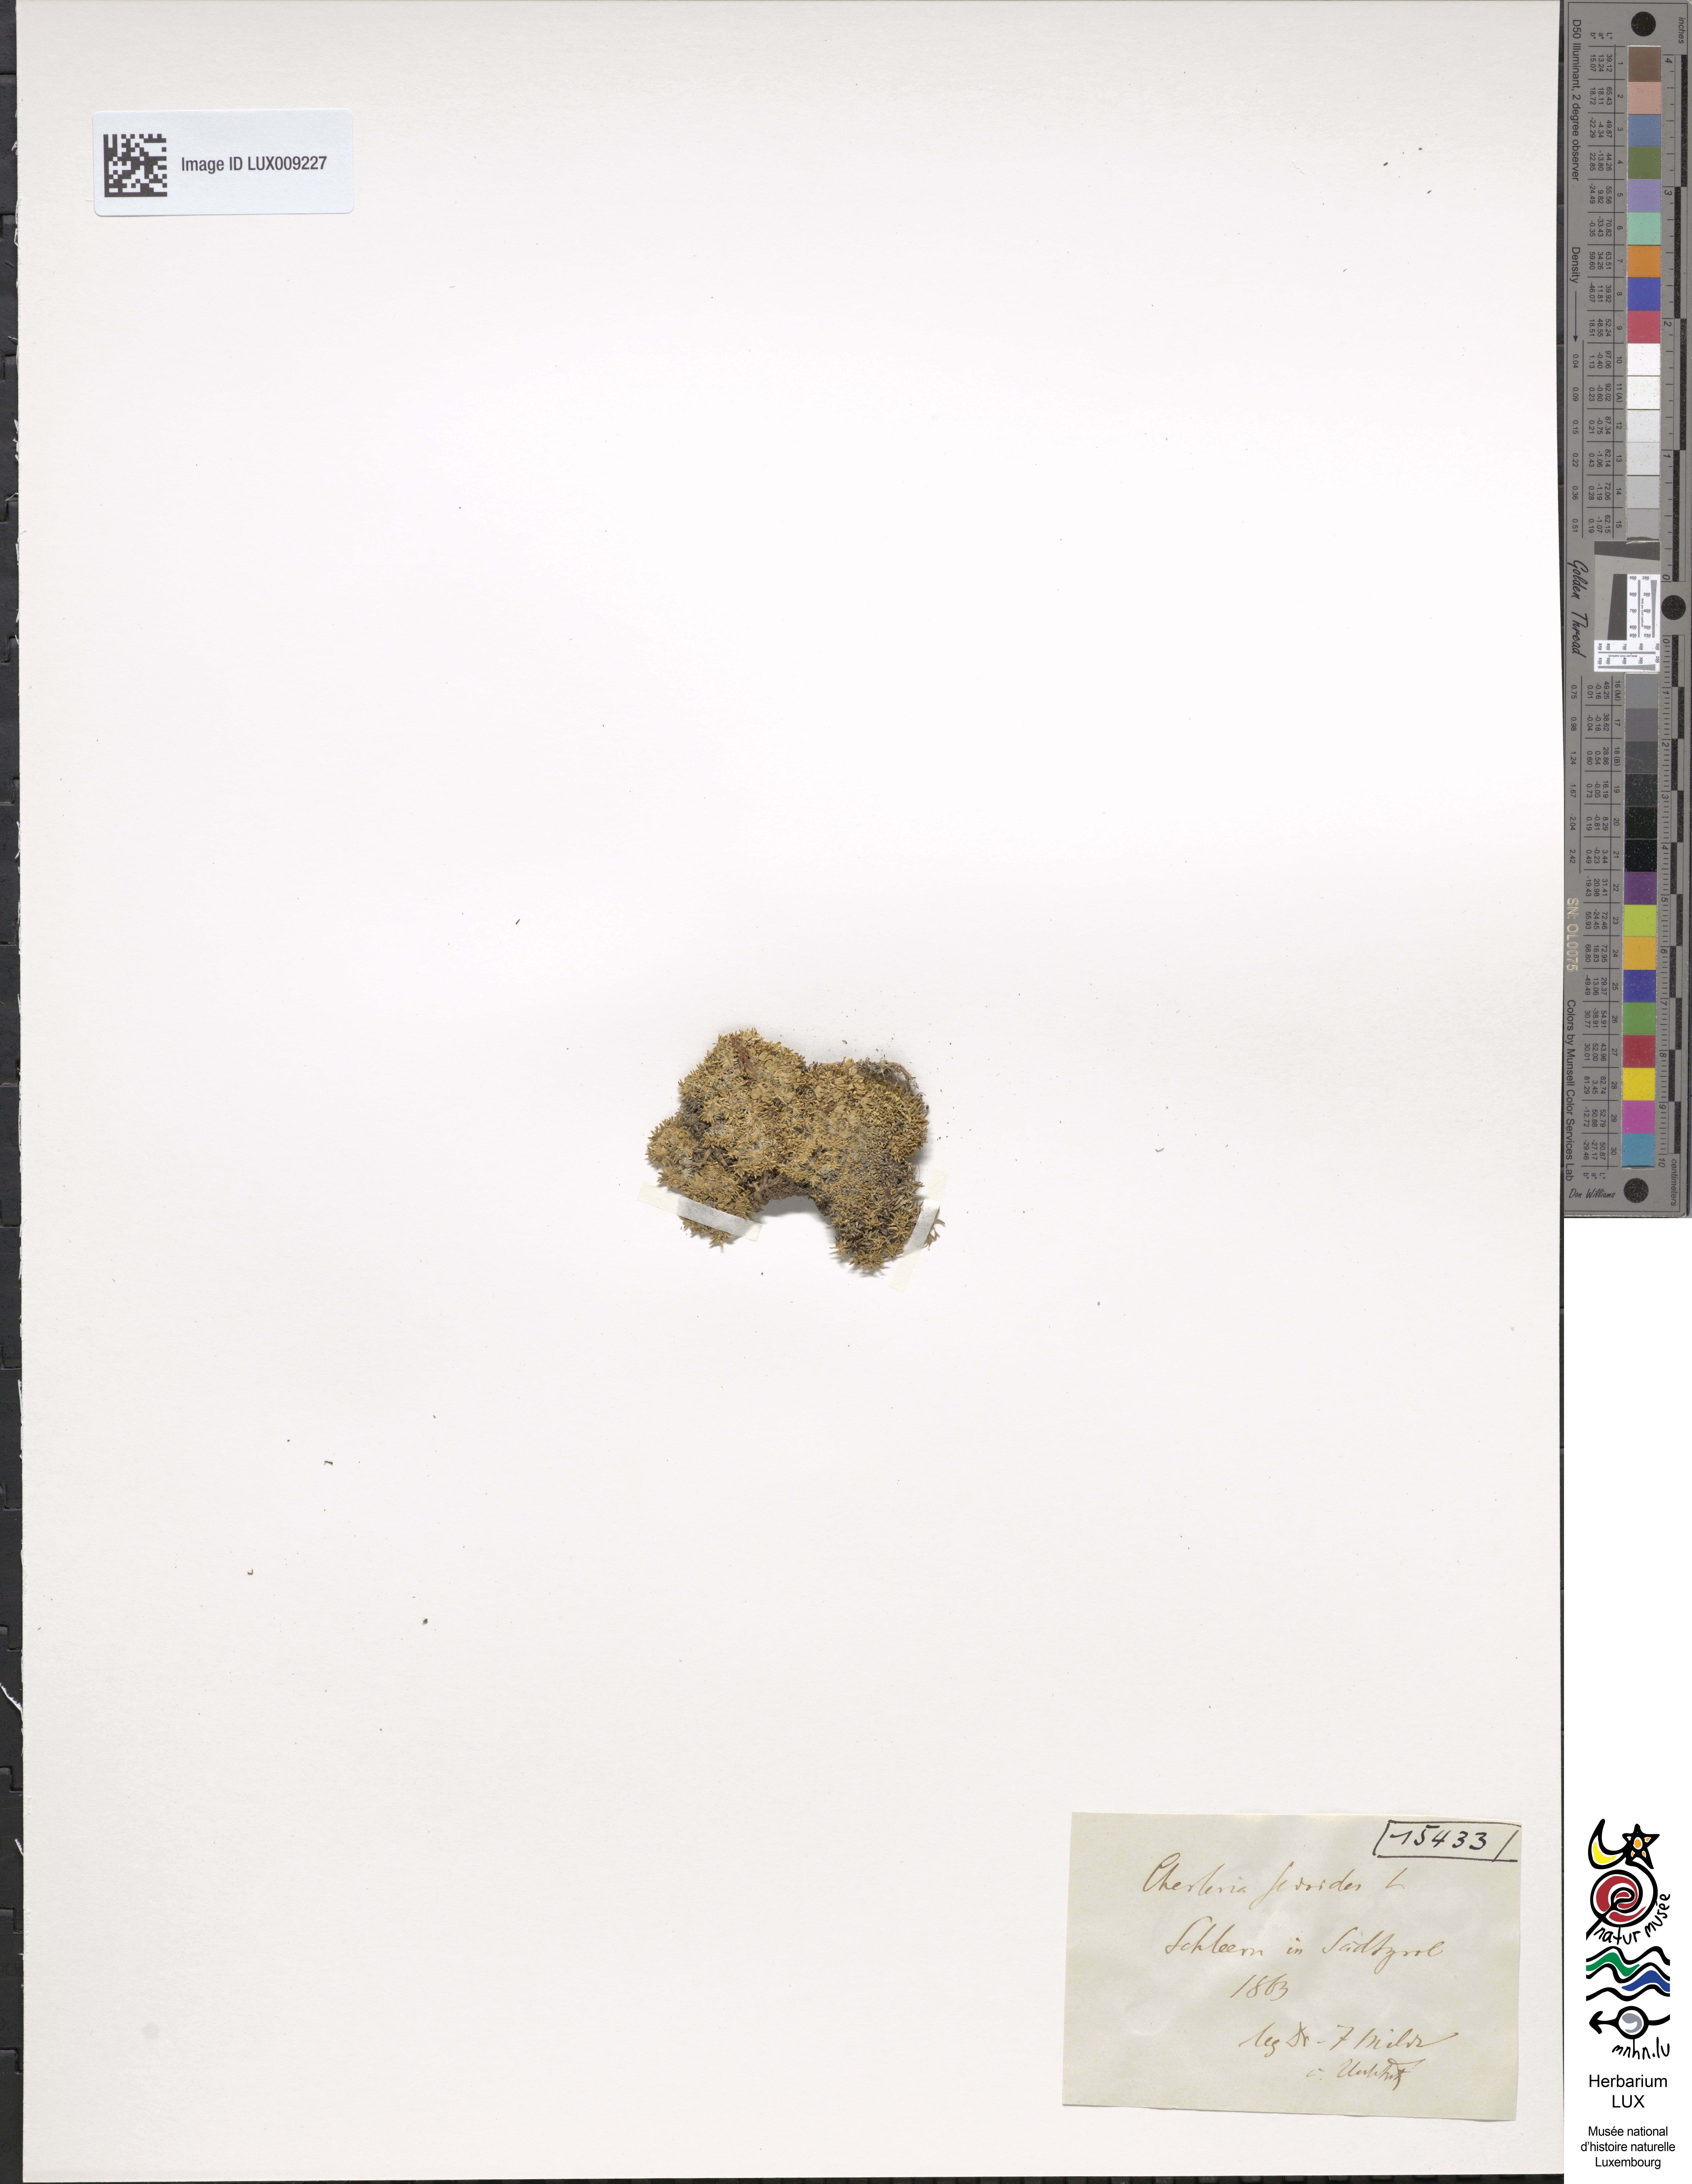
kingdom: Plantae
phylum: Tracheophyta
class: Magnoliopsida
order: Caryophyllales
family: Caryophyllaceae
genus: Cherleria
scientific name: Cherleria sedoides
